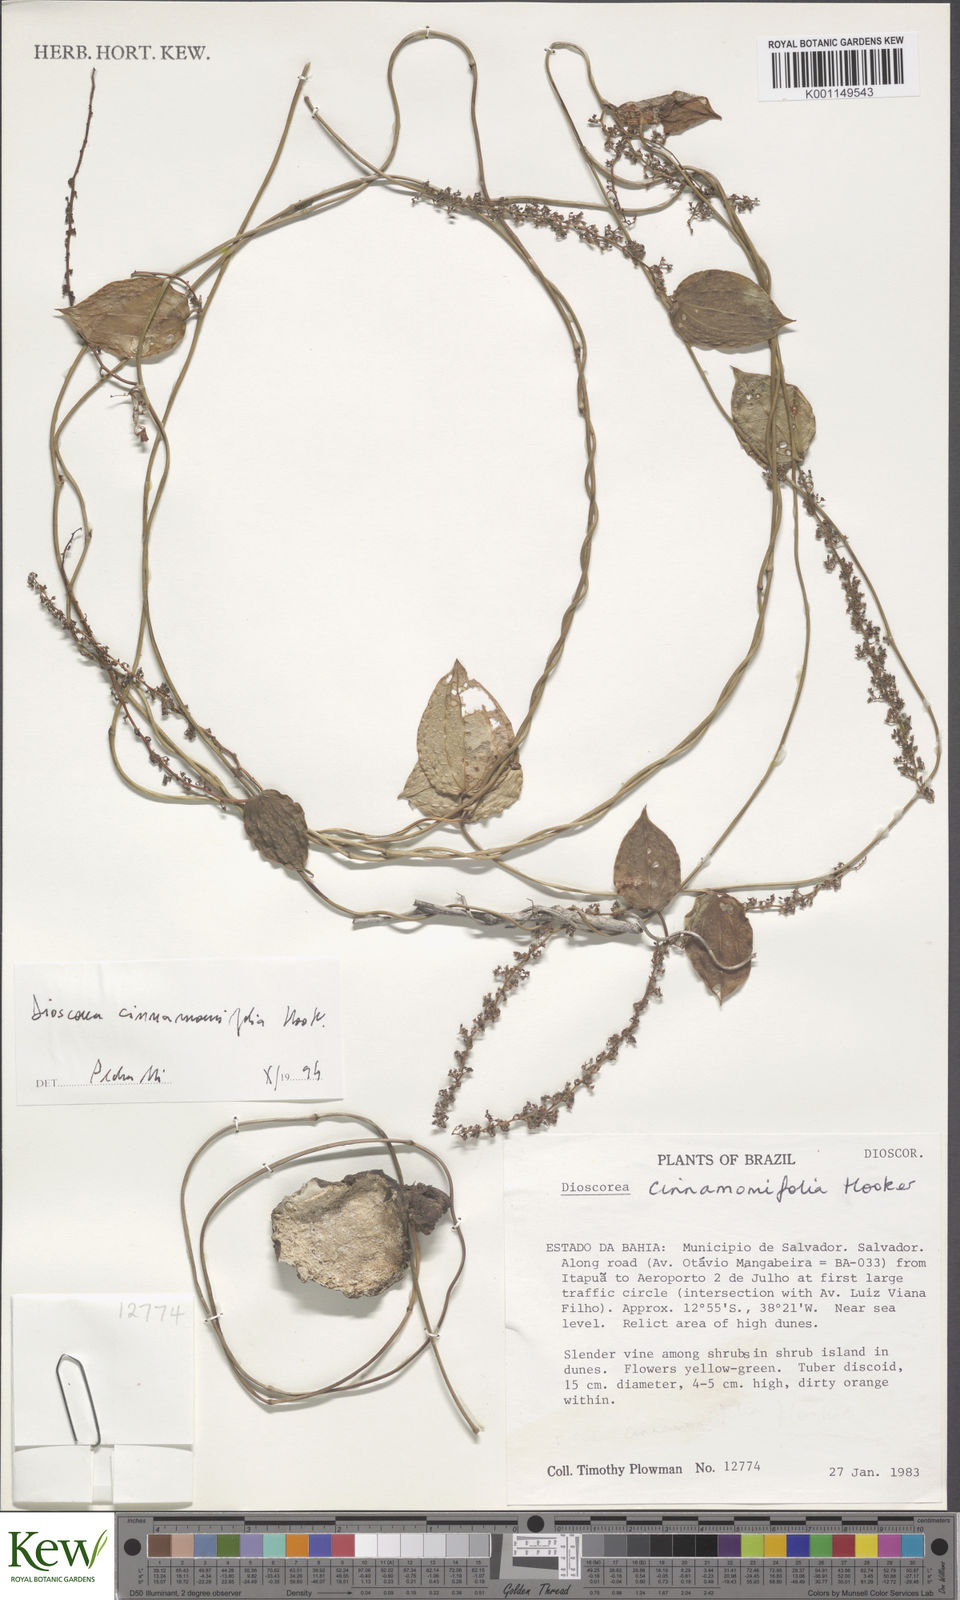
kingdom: Plantae
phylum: Tracheophyta
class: Liliopsida
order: Dioscoreales
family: Dioscoreaceae
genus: Dioscorea
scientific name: Dioscorea sincorensis
